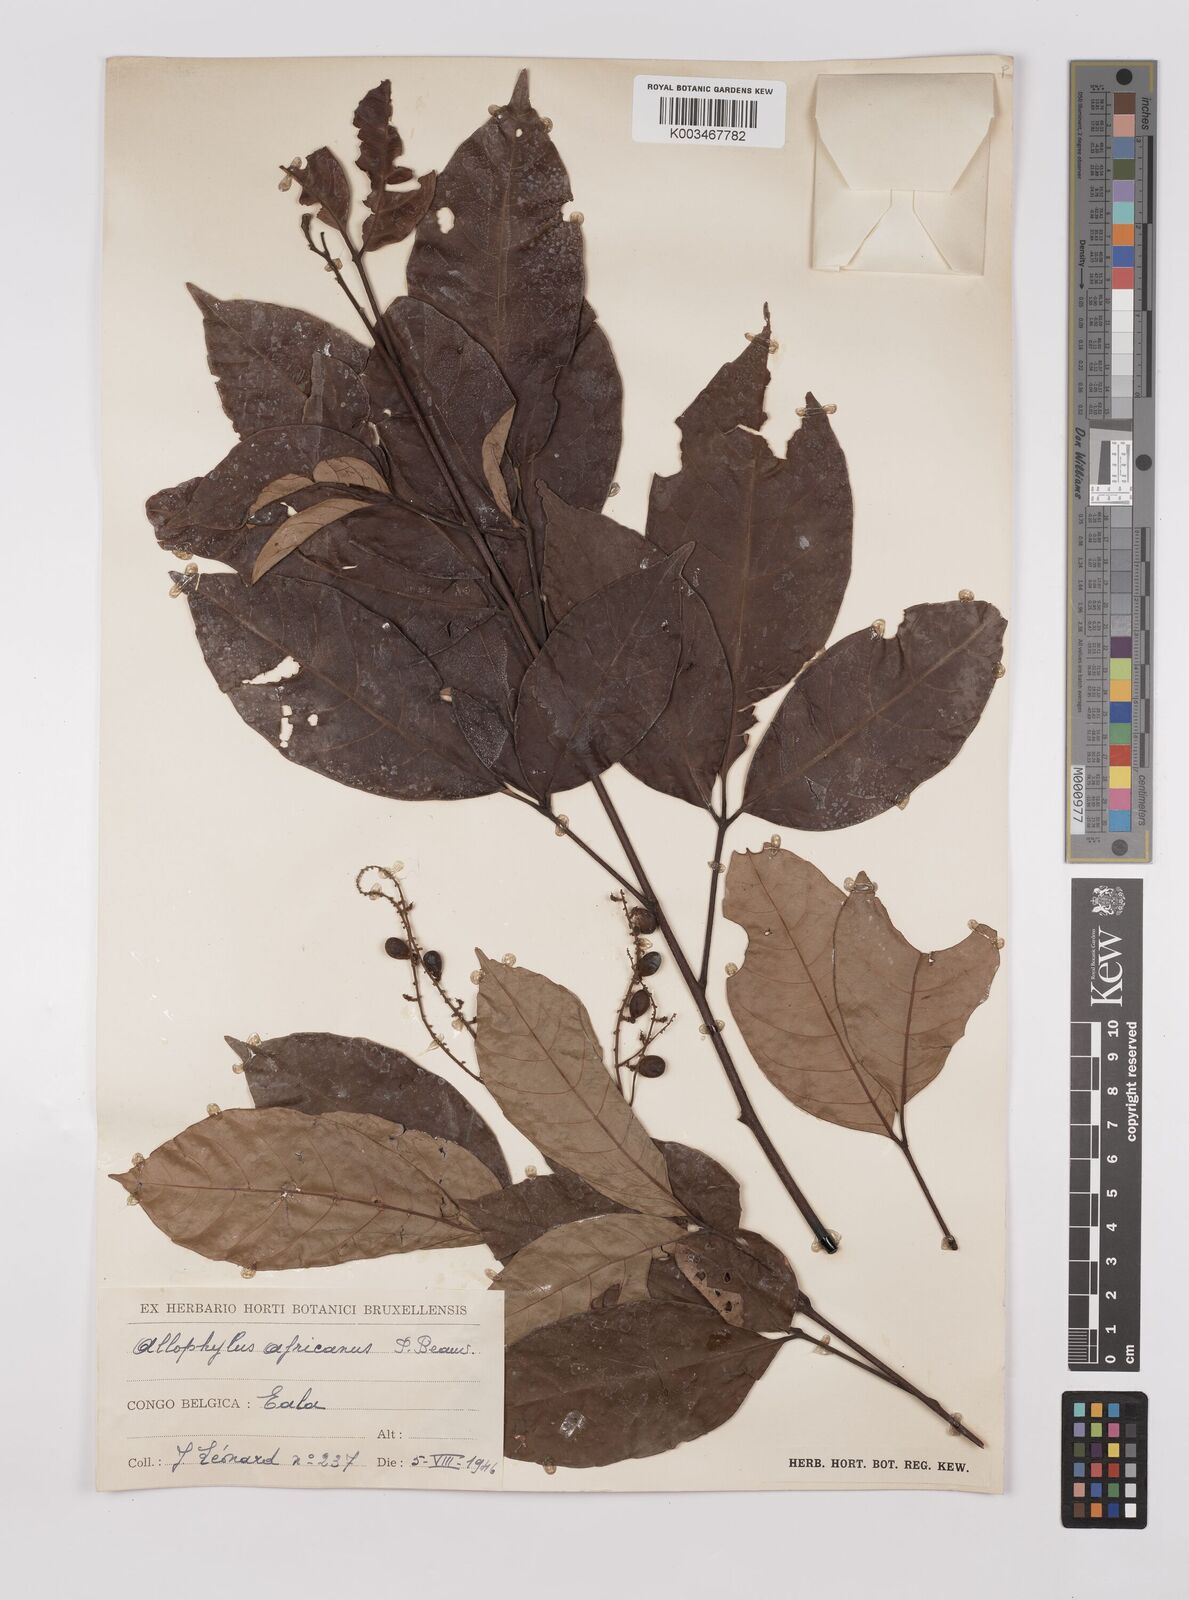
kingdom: Plantae
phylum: Tracheophyta
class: Magnoliopsida
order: Sapindales
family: Sapindaceae
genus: Allophylus
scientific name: Allophylus africanus
